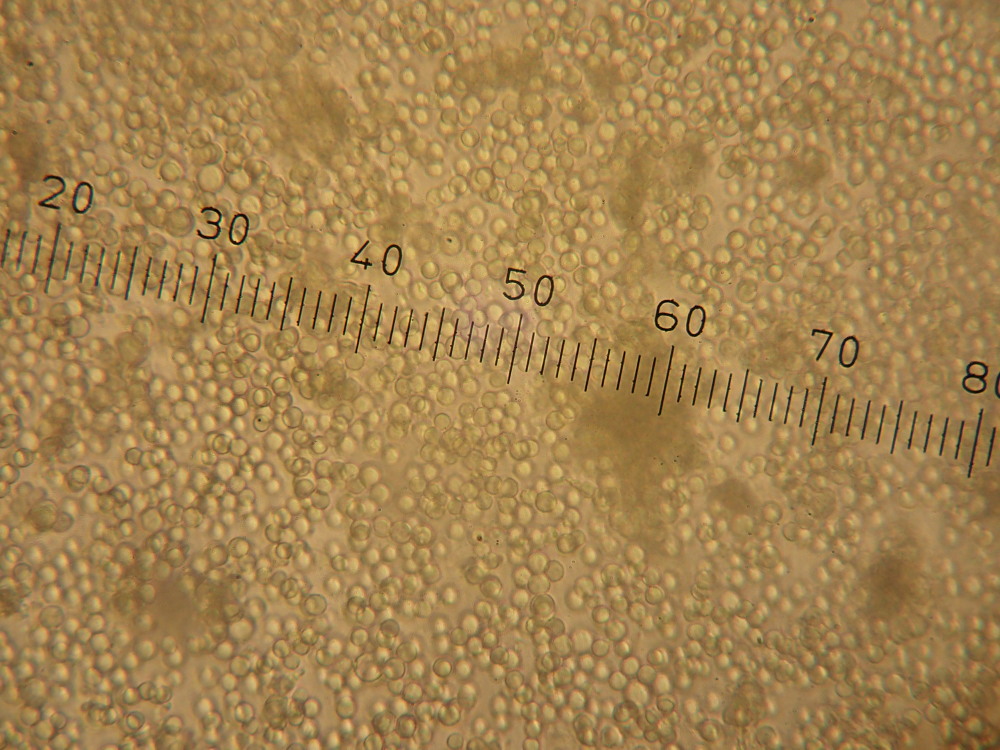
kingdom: Fungi
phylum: Ascomycota
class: Eurotiomycetes
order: Eurotiales
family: Aspergillaceae
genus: Penicillium
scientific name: Penicillium roqueforti
